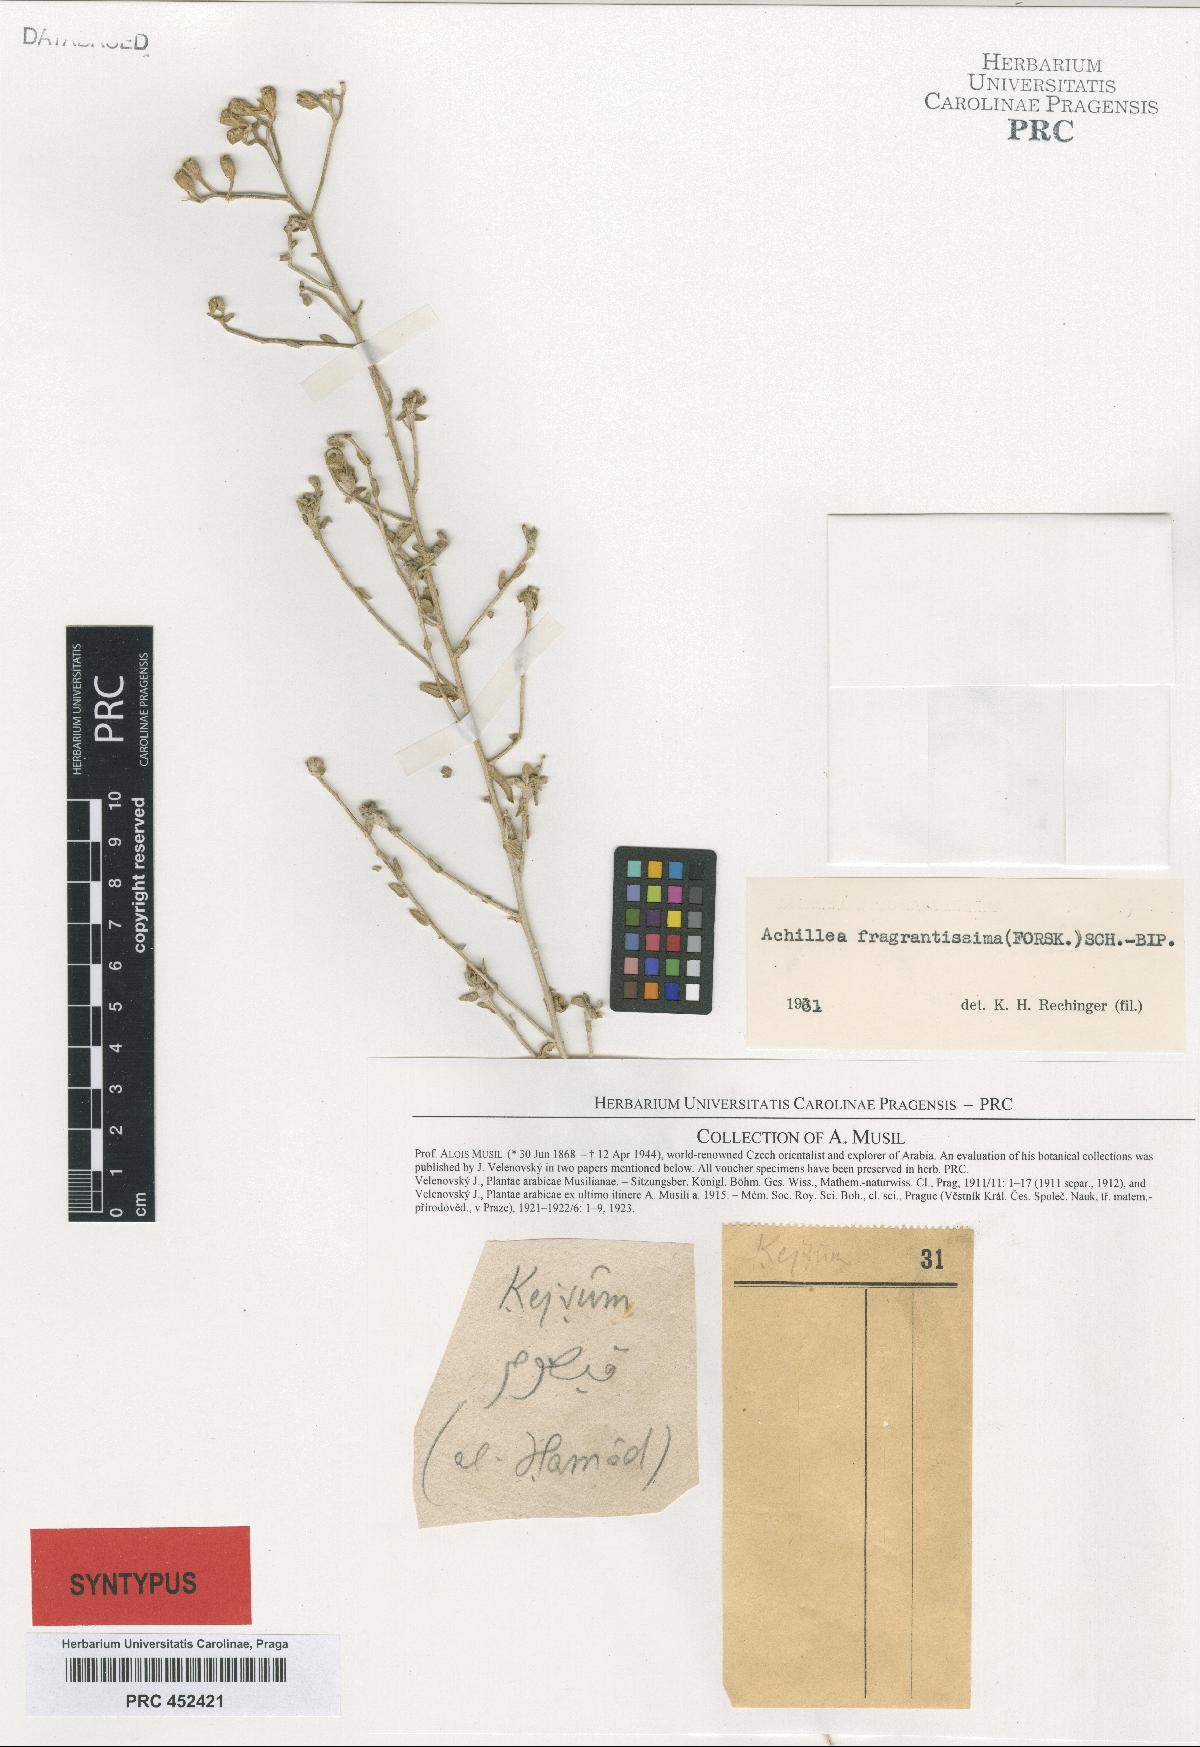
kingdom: Plantae
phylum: Tracheophyta
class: Magnoliopsida
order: Asterales
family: Asteraceae
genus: Tanacetum
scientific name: Tanacetum musili
